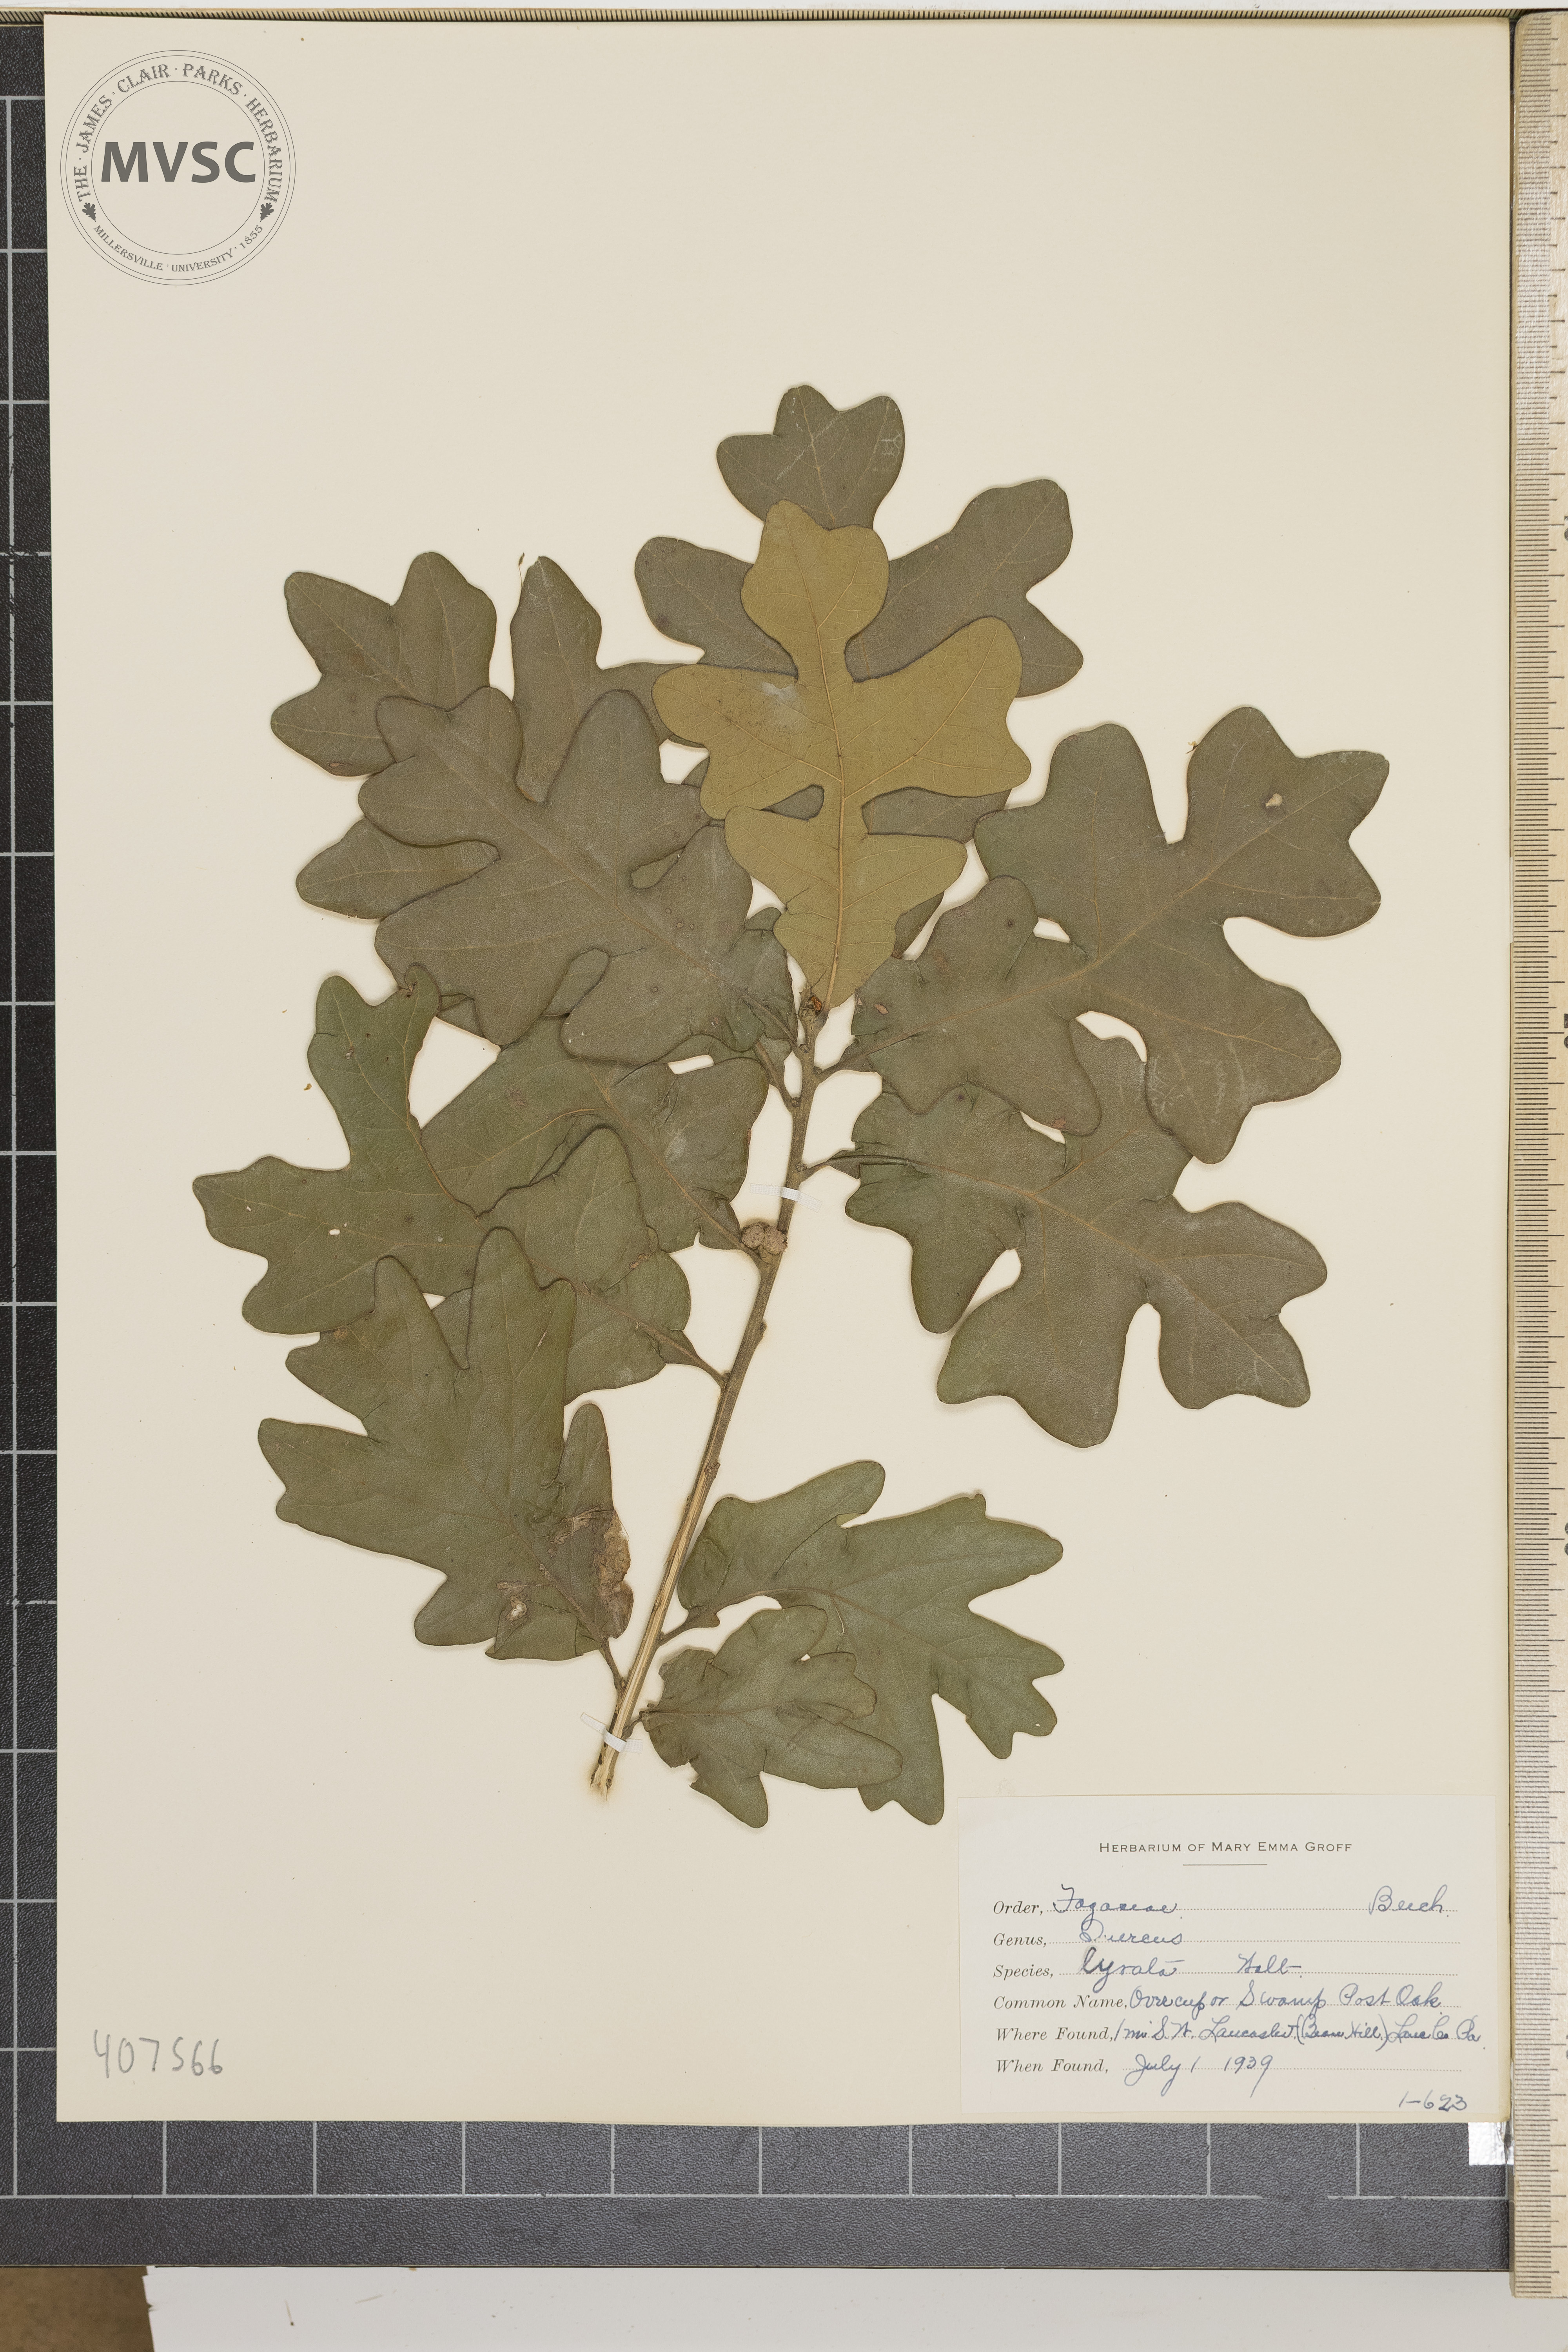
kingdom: Plantae
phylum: Tracheophyta
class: Magnoliopsida
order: Fagales
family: Fagaceae
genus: Quercus
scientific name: Quercus lyrata
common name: Overcup oak
